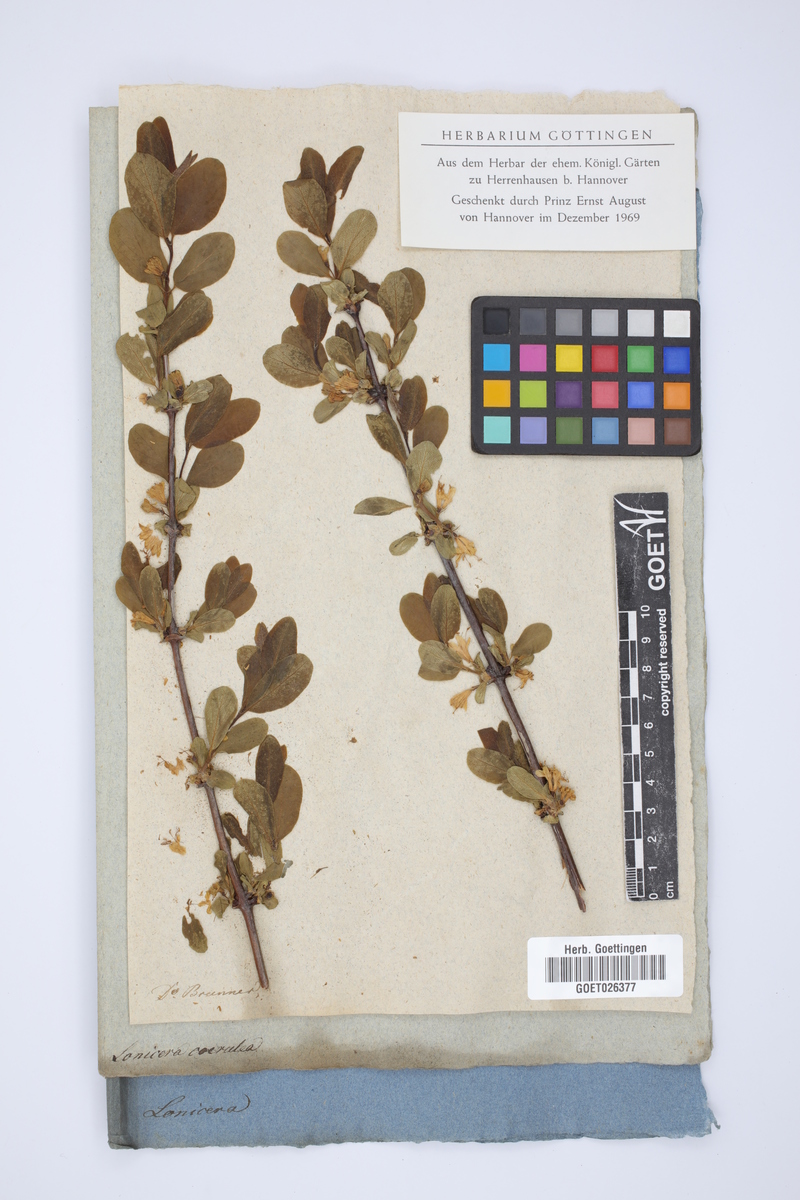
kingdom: Plantae
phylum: Tracheophyta
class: Magnoliopsida
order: Dipsacales
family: Caprifoliaceae
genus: Lonicera
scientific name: Lonicera caerulea
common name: Blue honeysuckle
